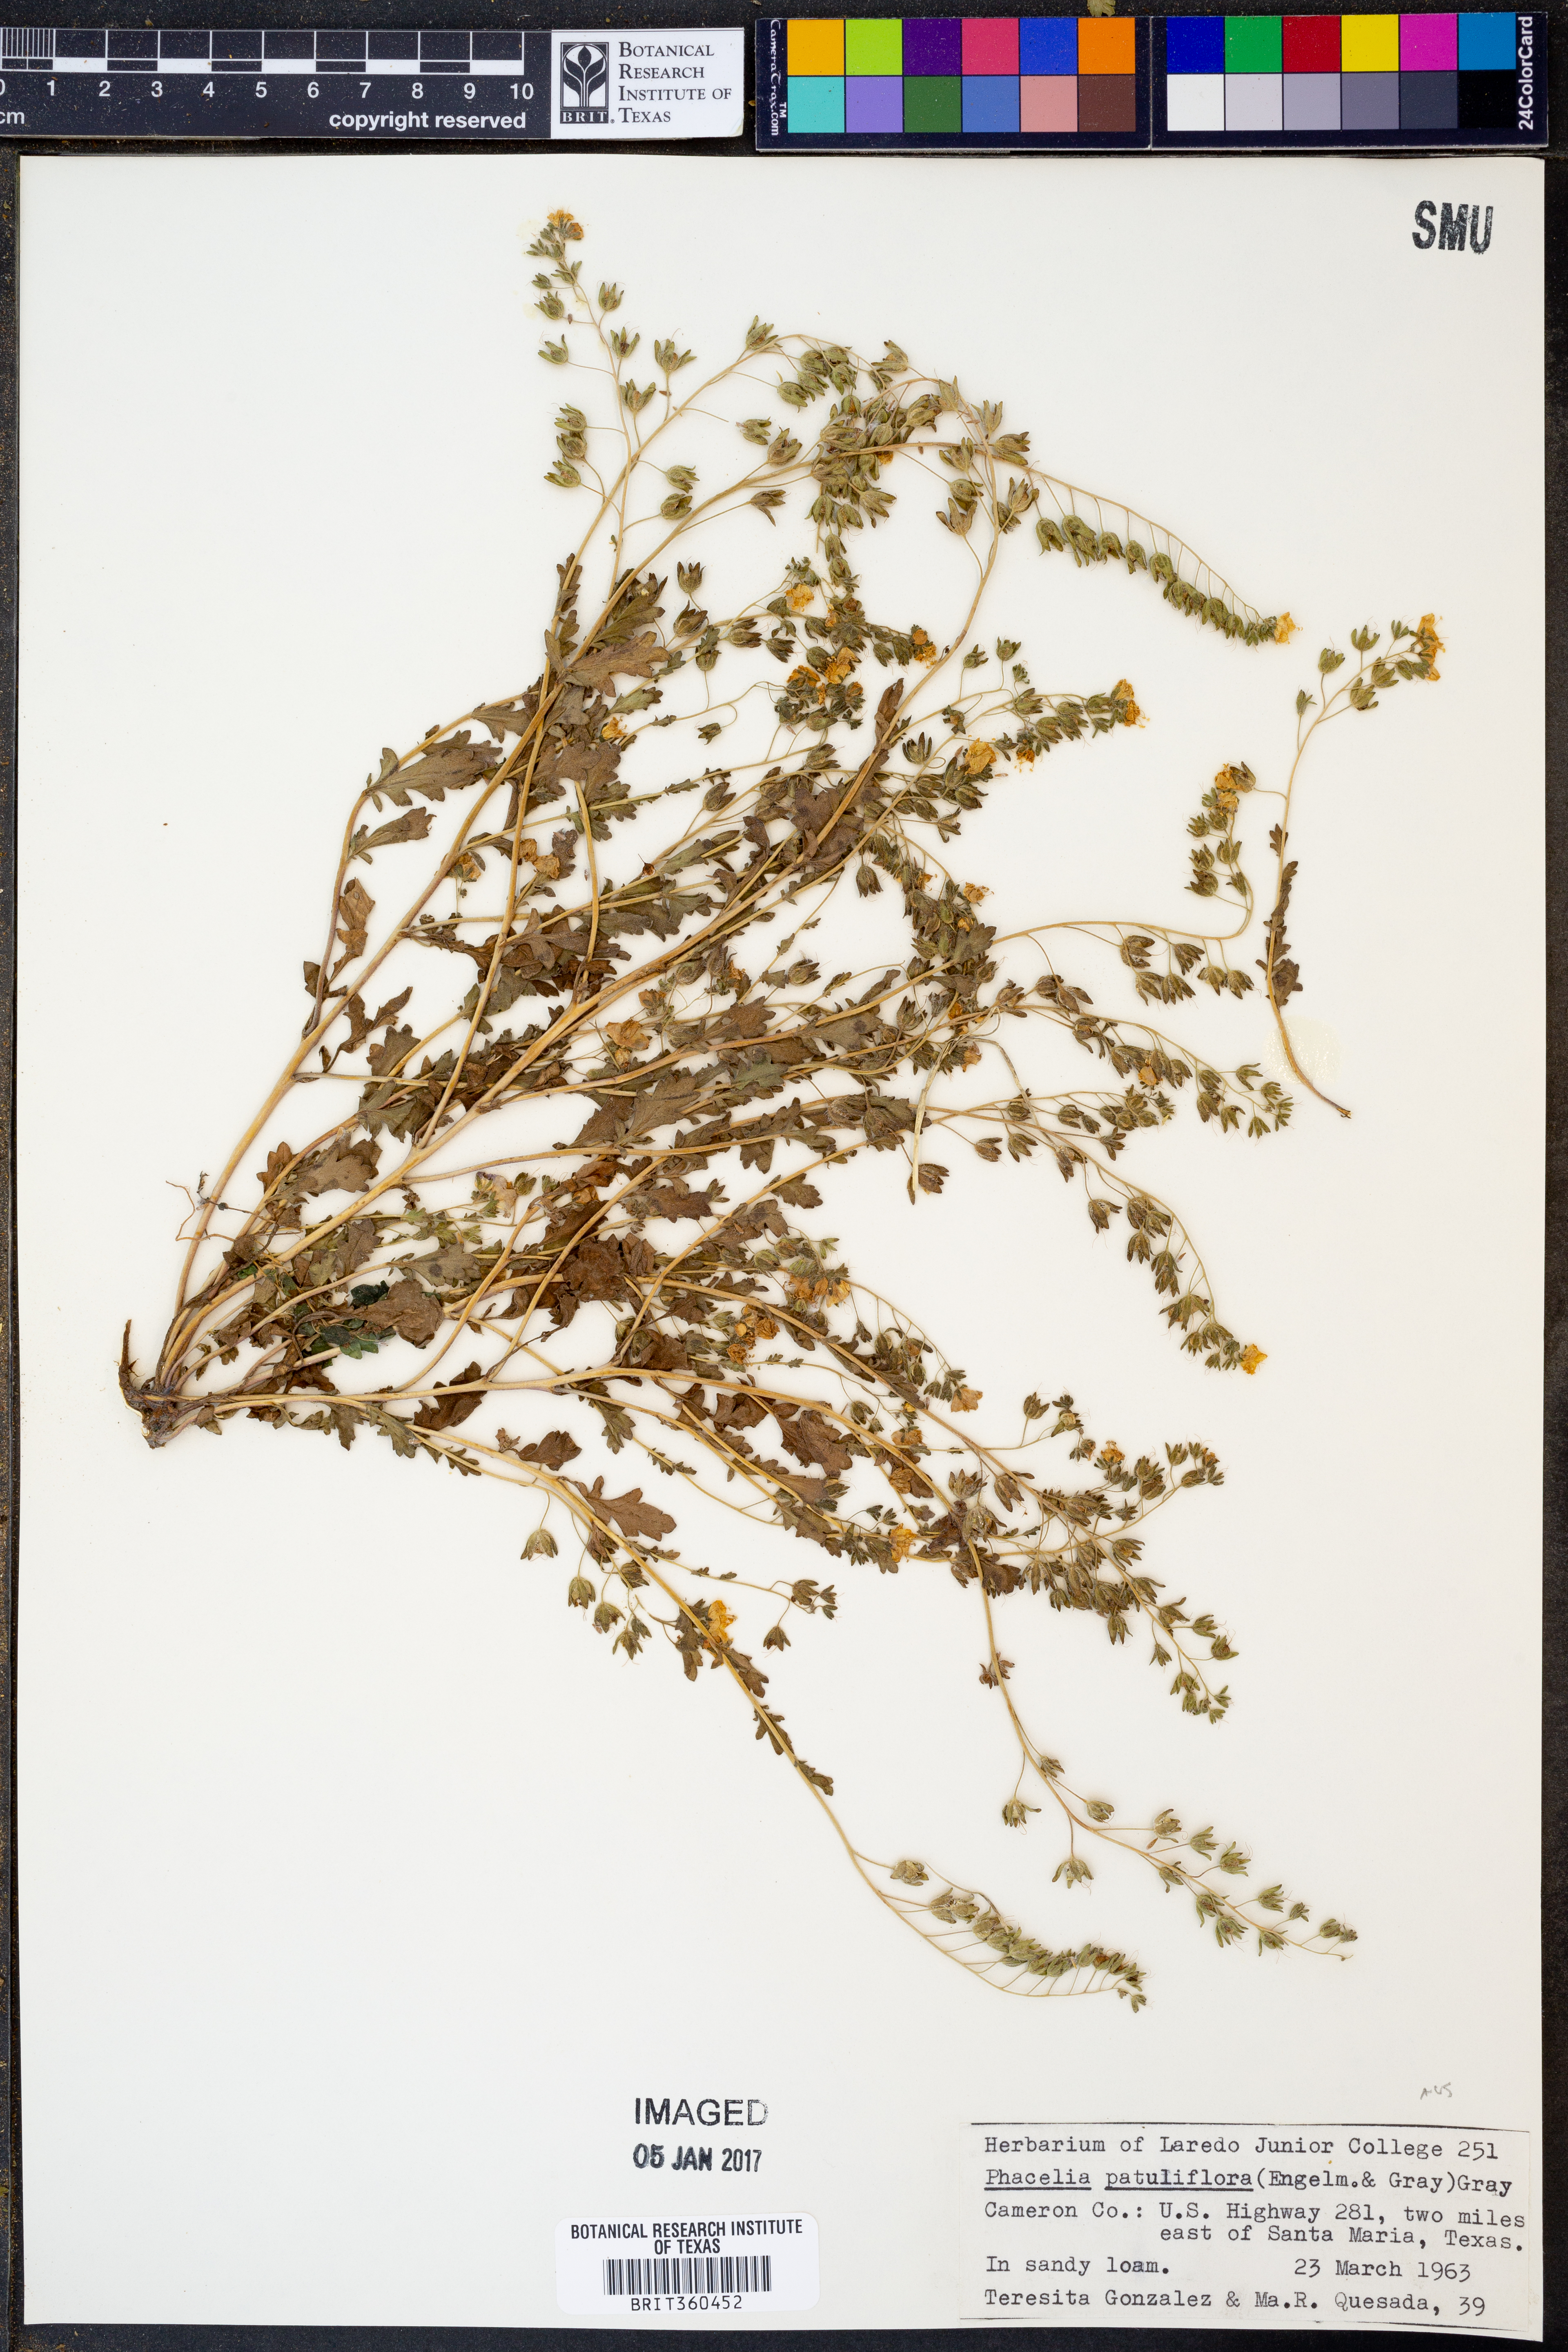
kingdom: Plantae
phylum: Tracheophyta
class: Magnoliopsida
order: Boraginales
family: Hydrophyllaceae
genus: Phacelia
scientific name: Phacelia patuliflora
